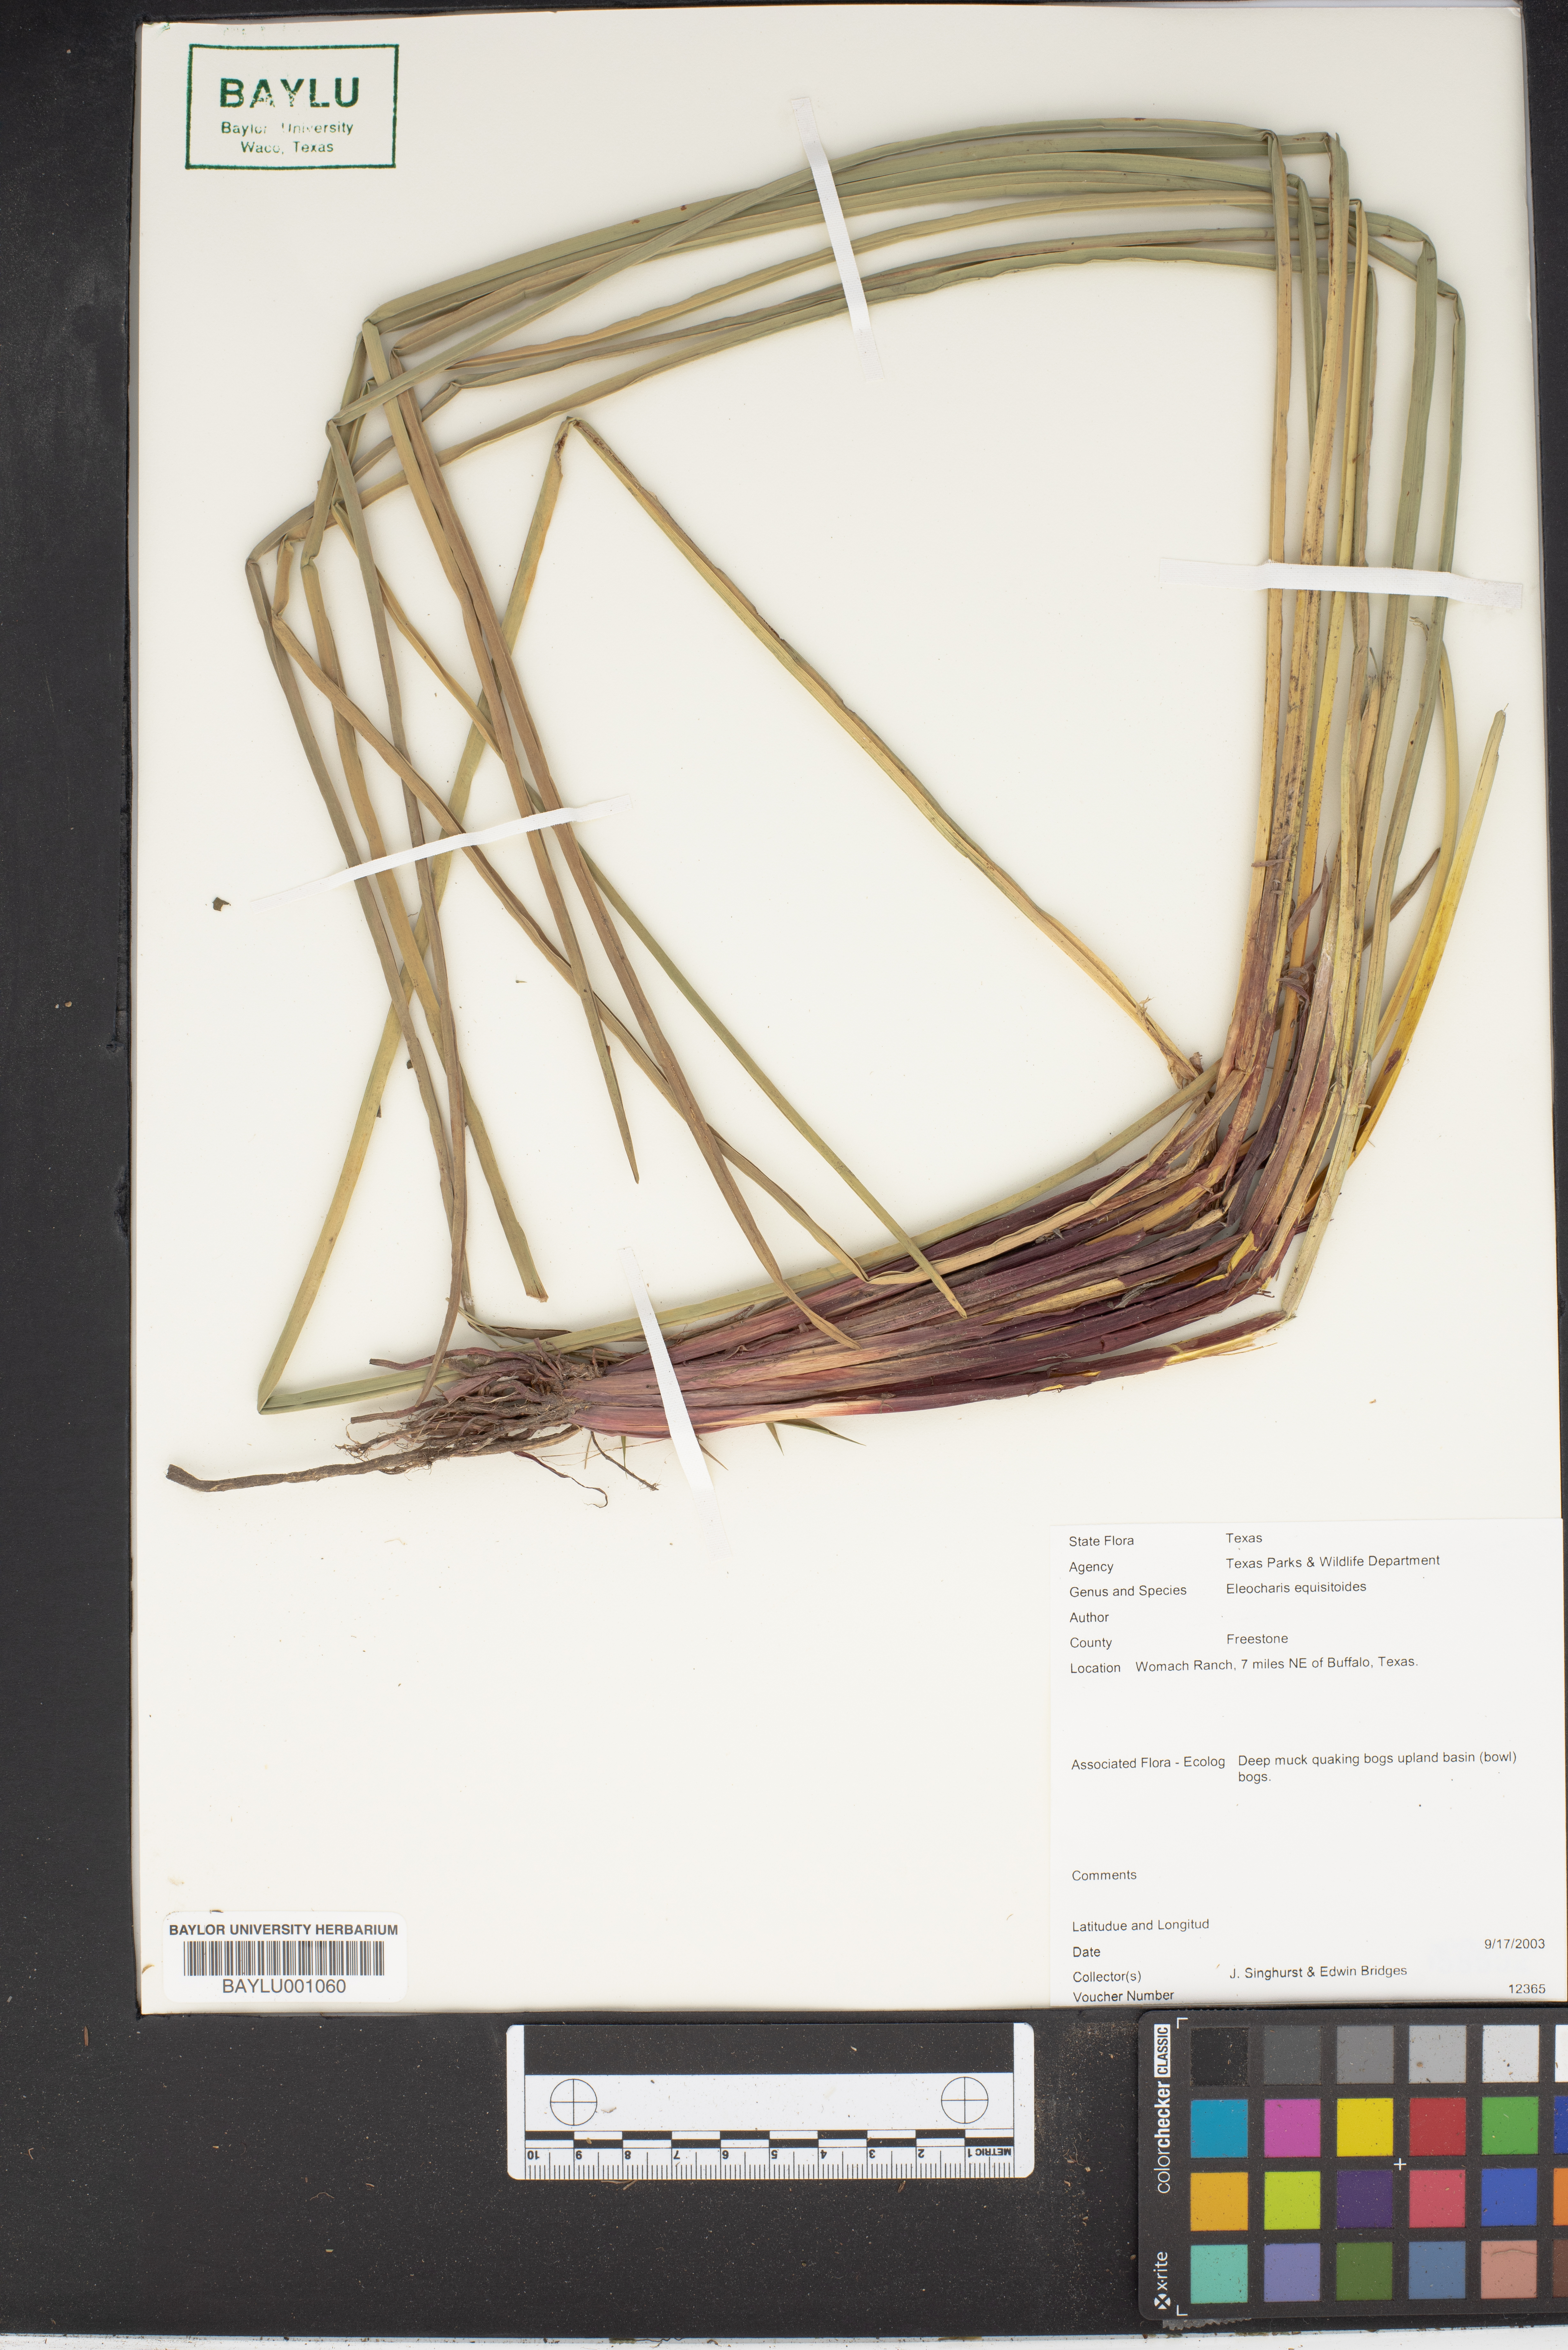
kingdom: Plantae
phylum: Tracheophyta
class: Liliopsida
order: Poales
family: Cyperaceae
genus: Eleocharis
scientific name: Eleocharis equisetoides
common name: Horsetail spike-rush
